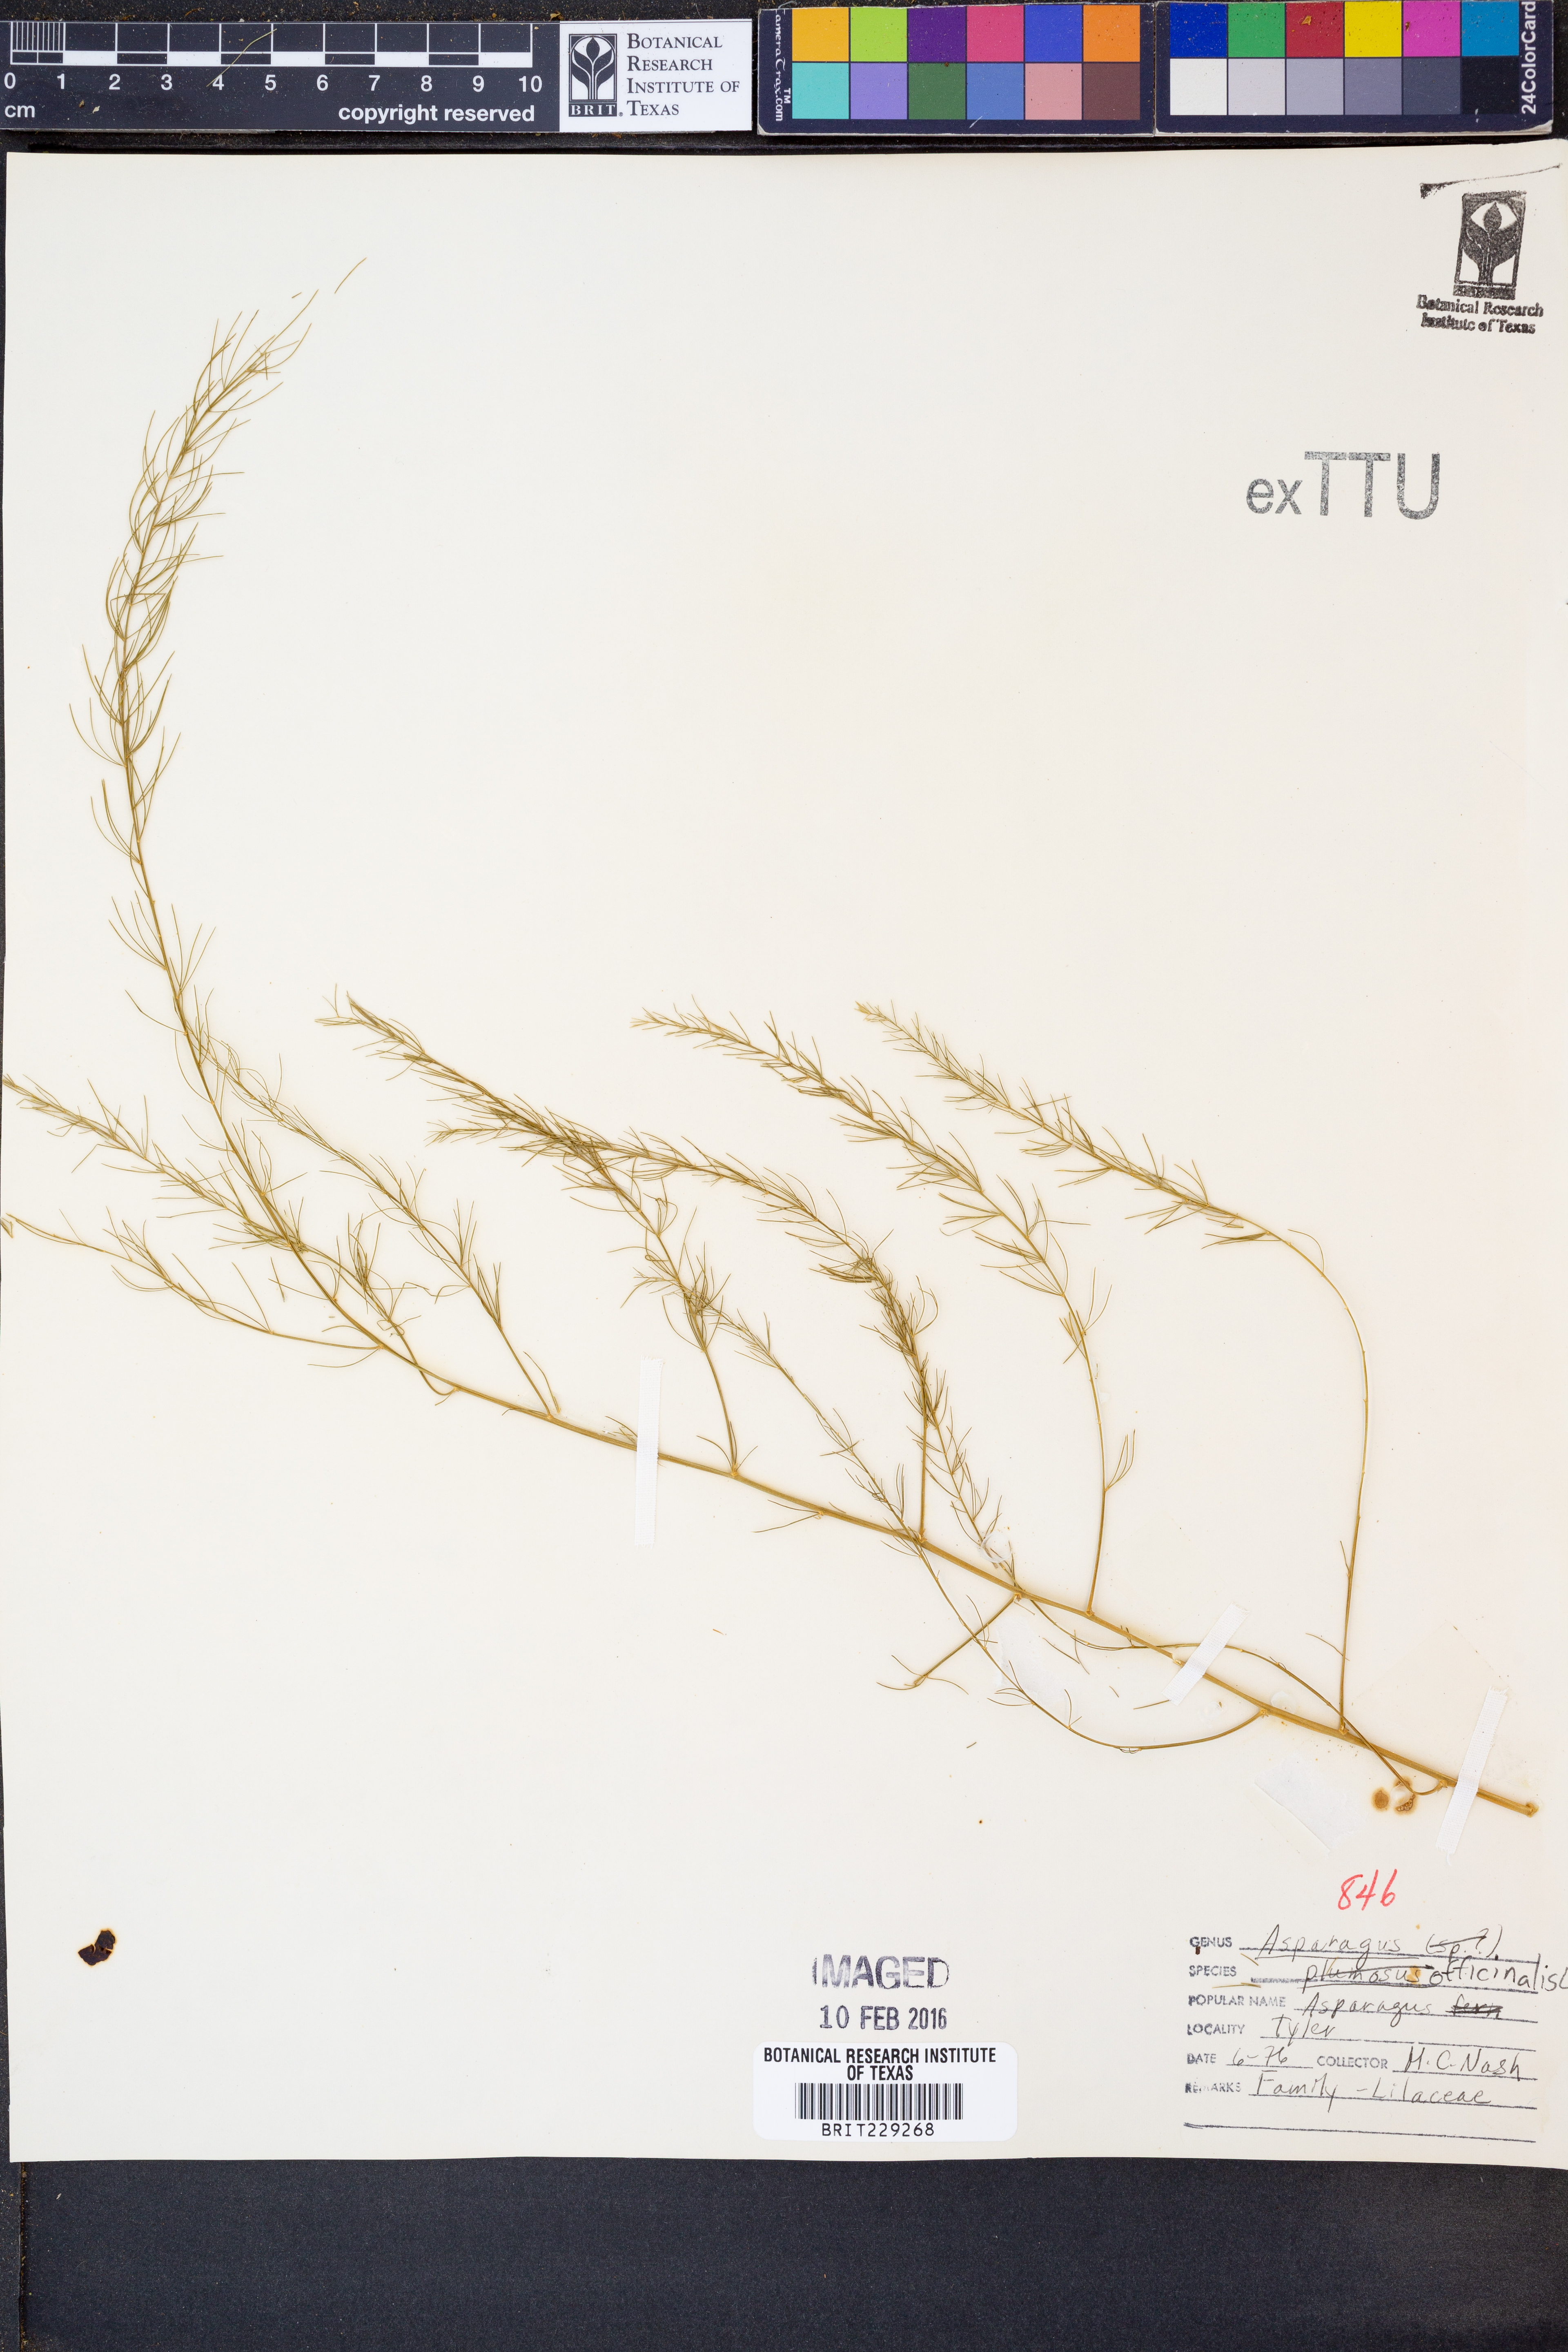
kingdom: Plantae
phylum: Tracheophyta
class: Liliopsida
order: Asparagales
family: Asparagaceae
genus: Asparagus
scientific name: Asparagus officinalis
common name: Garden asparagus
